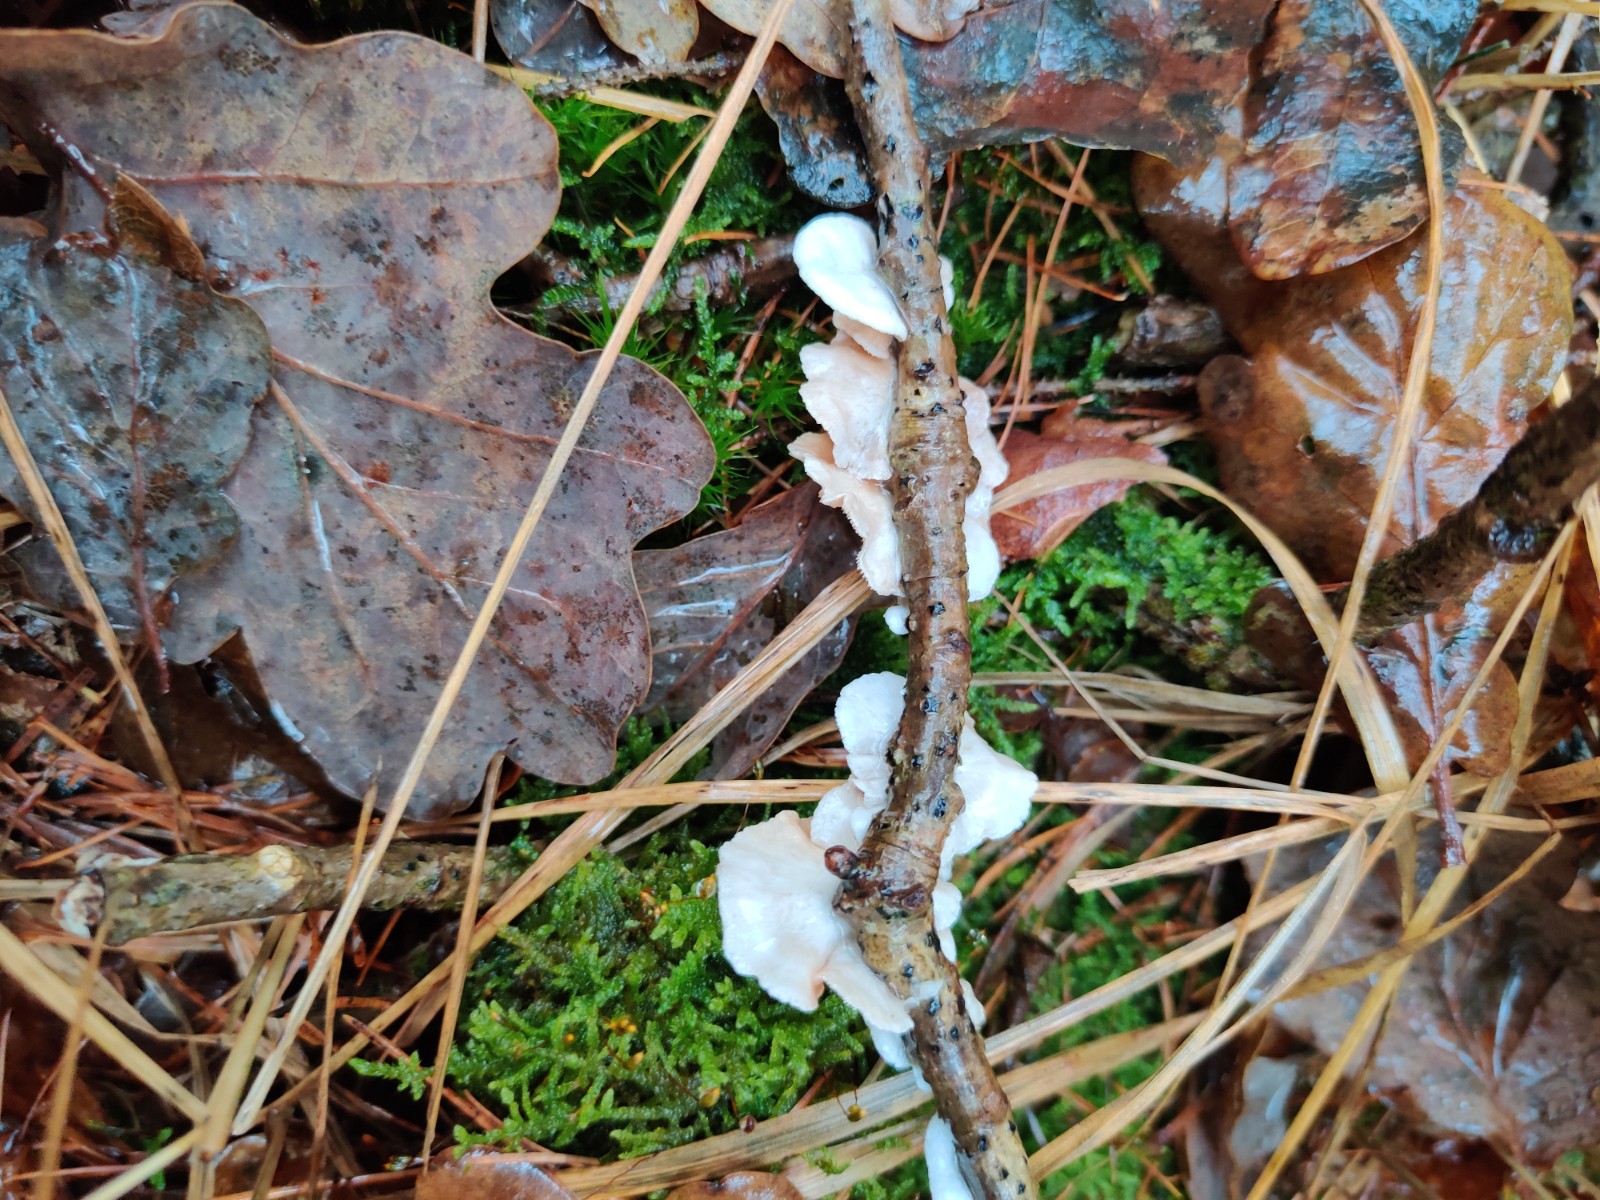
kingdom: Fungi
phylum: Basidiomycota
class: Agaricomycetes
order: Agaricales
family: Crepidotaceae
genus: Crepidotus
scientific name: Crepidotus
